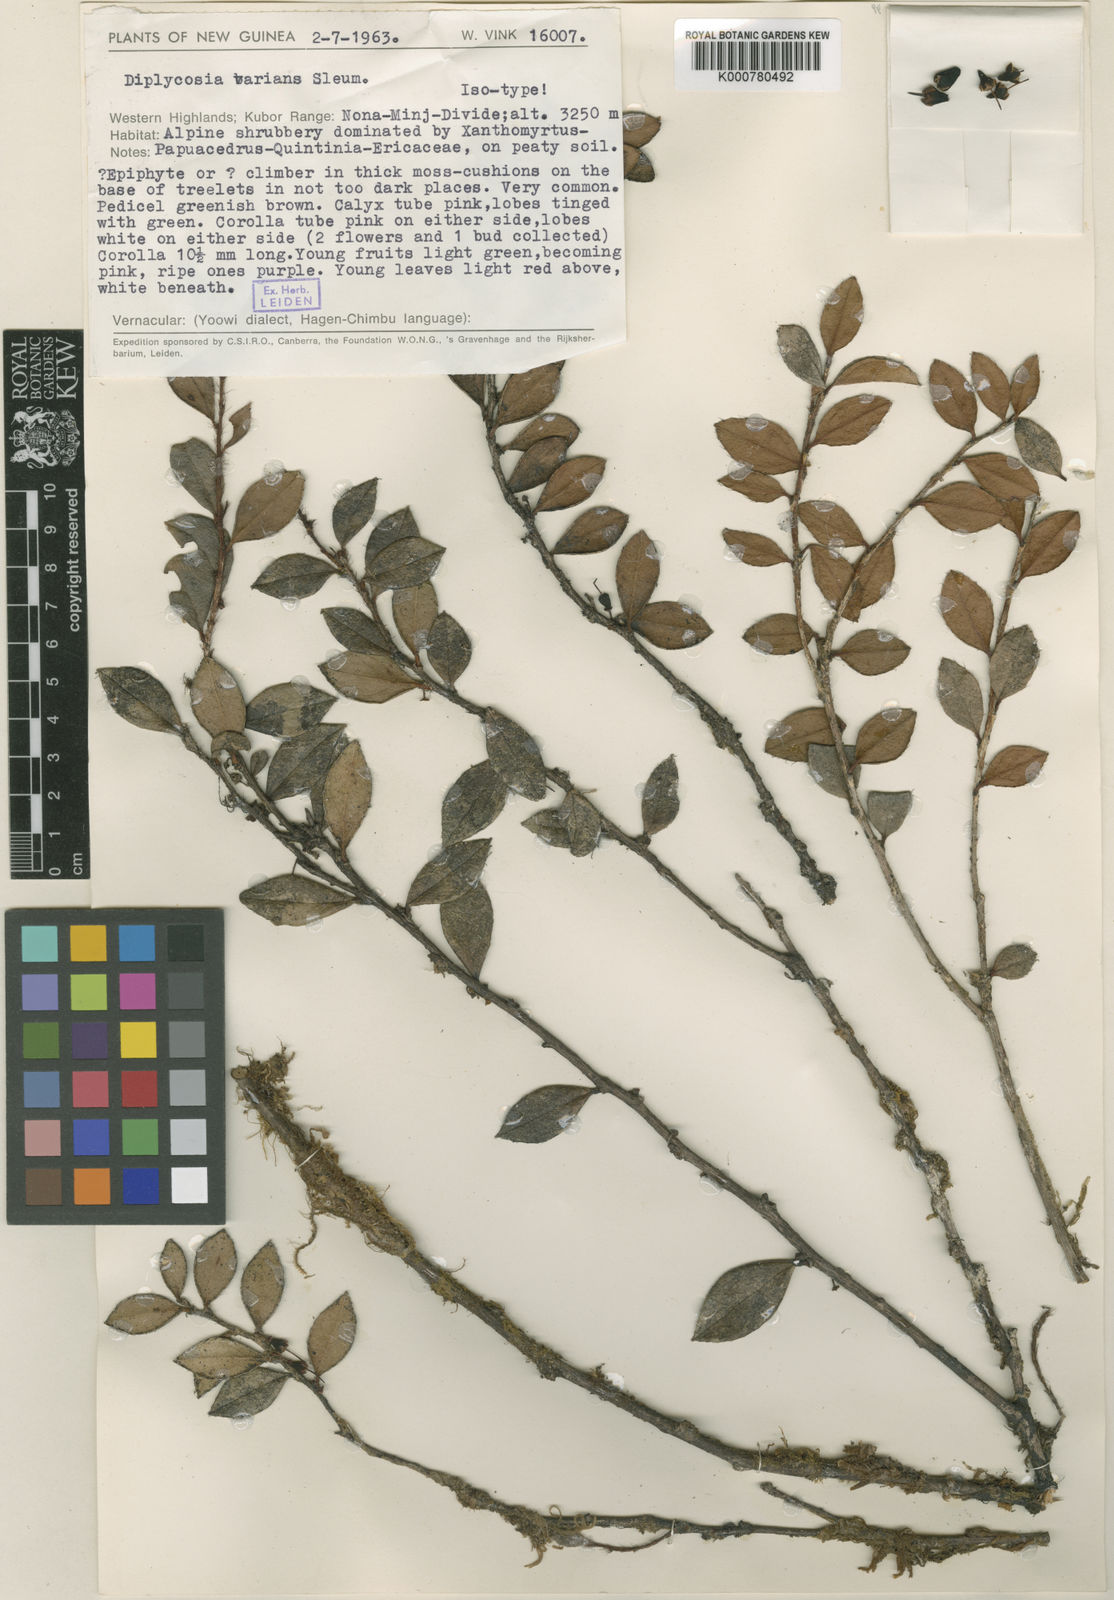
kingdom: Plantae
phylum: Tracheophyta
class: Magnoliopsida
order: Ericales
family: Ericaceae
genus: Gaultheria
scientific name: Gaultheria varians
